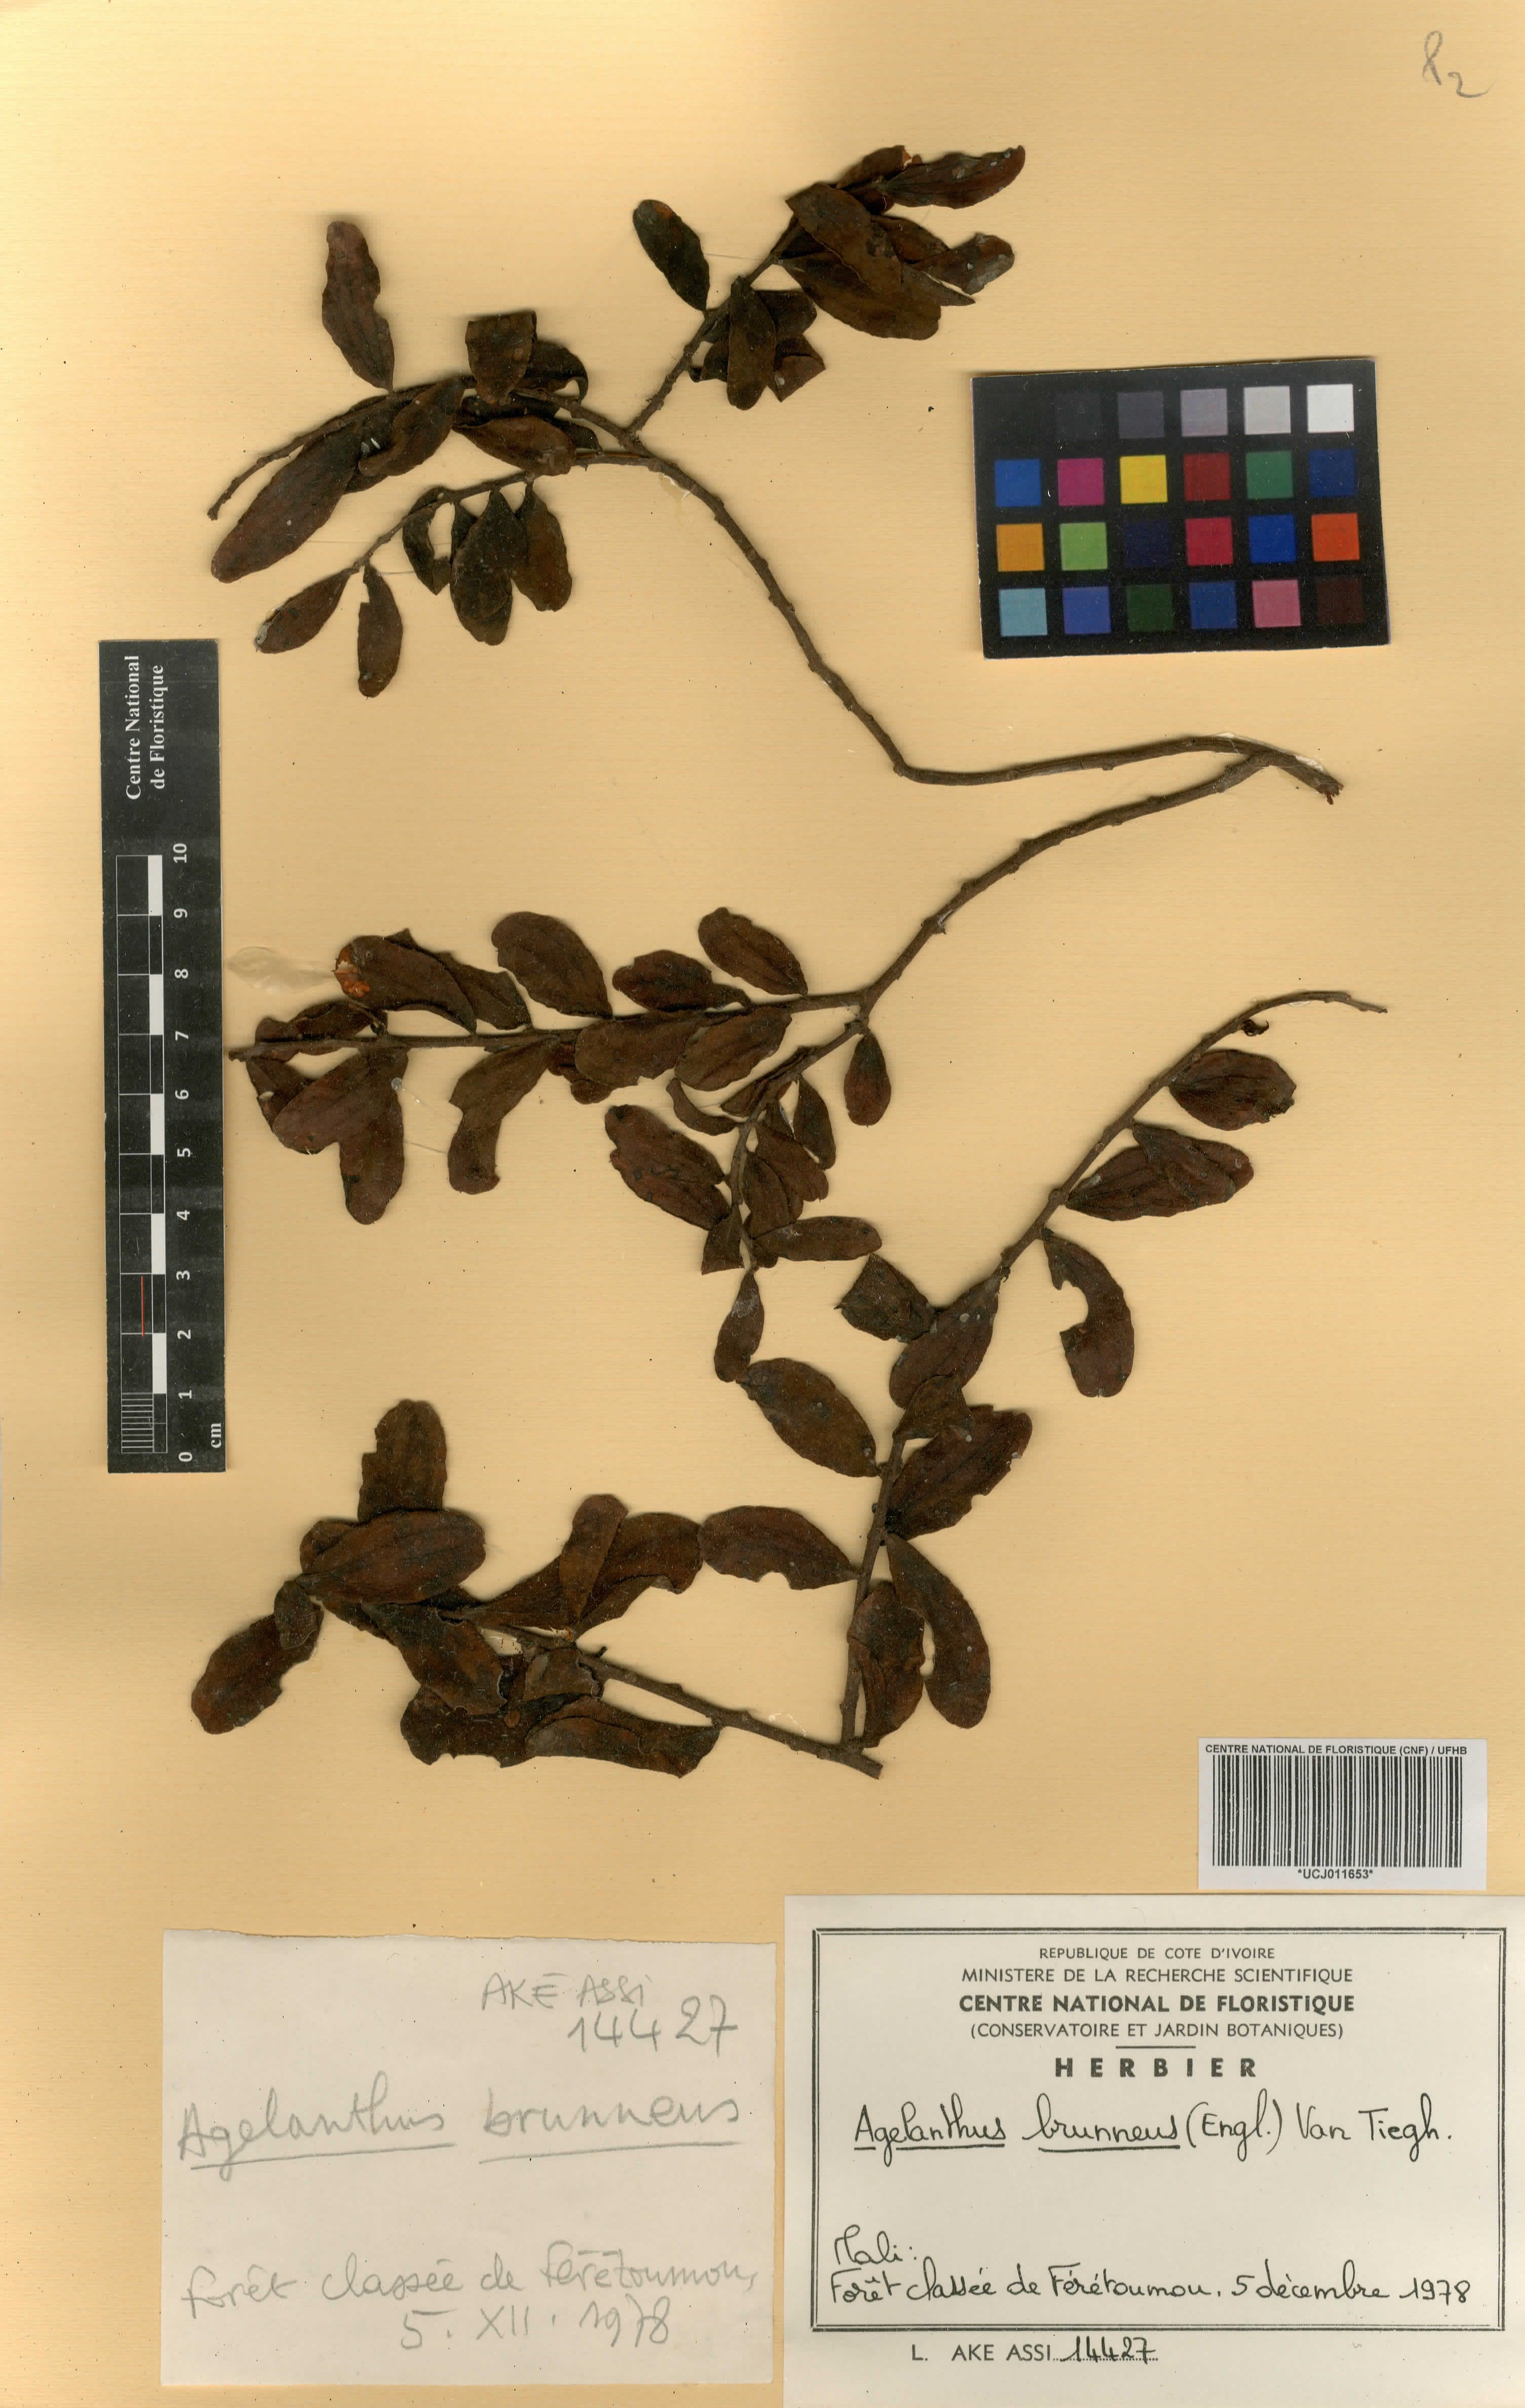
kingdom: Plantae
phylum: Tracheophyta
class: Magnoliopsida
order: Santalales
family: Loranthaceae
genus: Agelanthus
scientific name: Agelanthus brunneus
